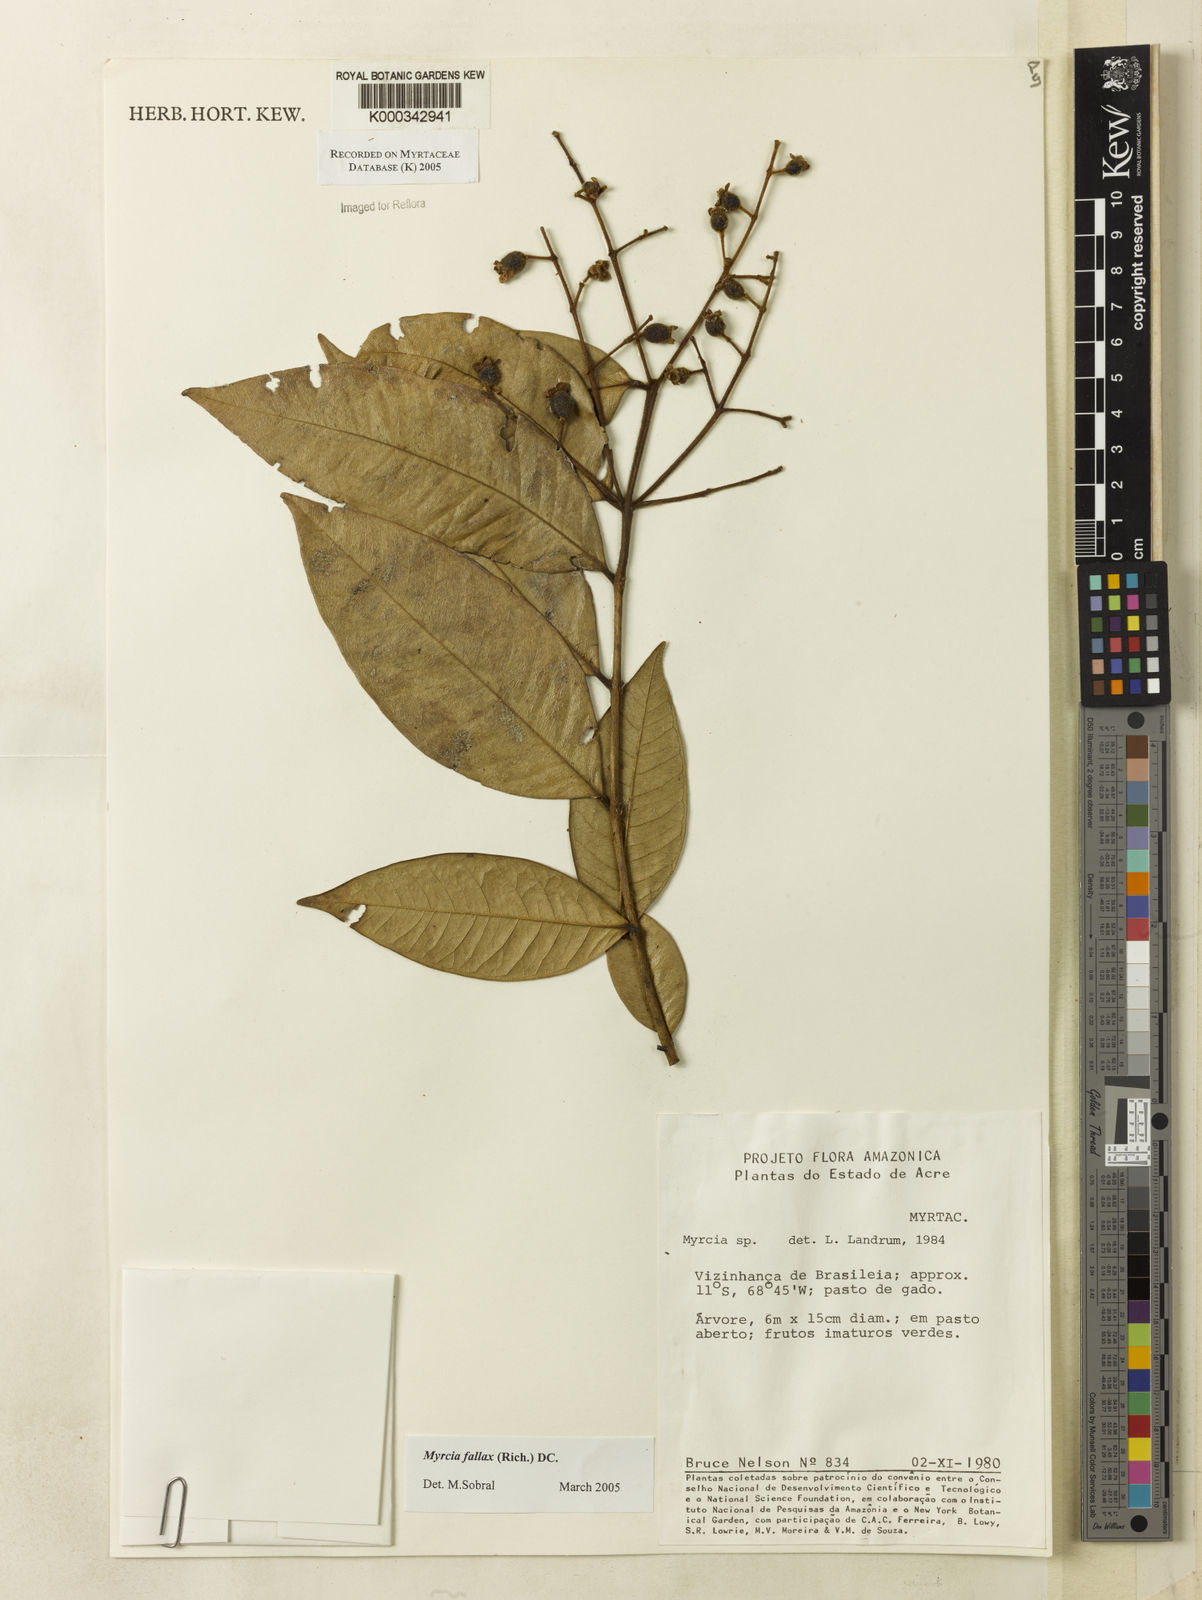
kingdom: Plantae
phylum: Tracheophyta
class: Magnoliopsida
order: Myrtales
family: Myrtaceae
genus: Myrcia
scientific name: Myrcia splendens
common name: Surinam cherry
